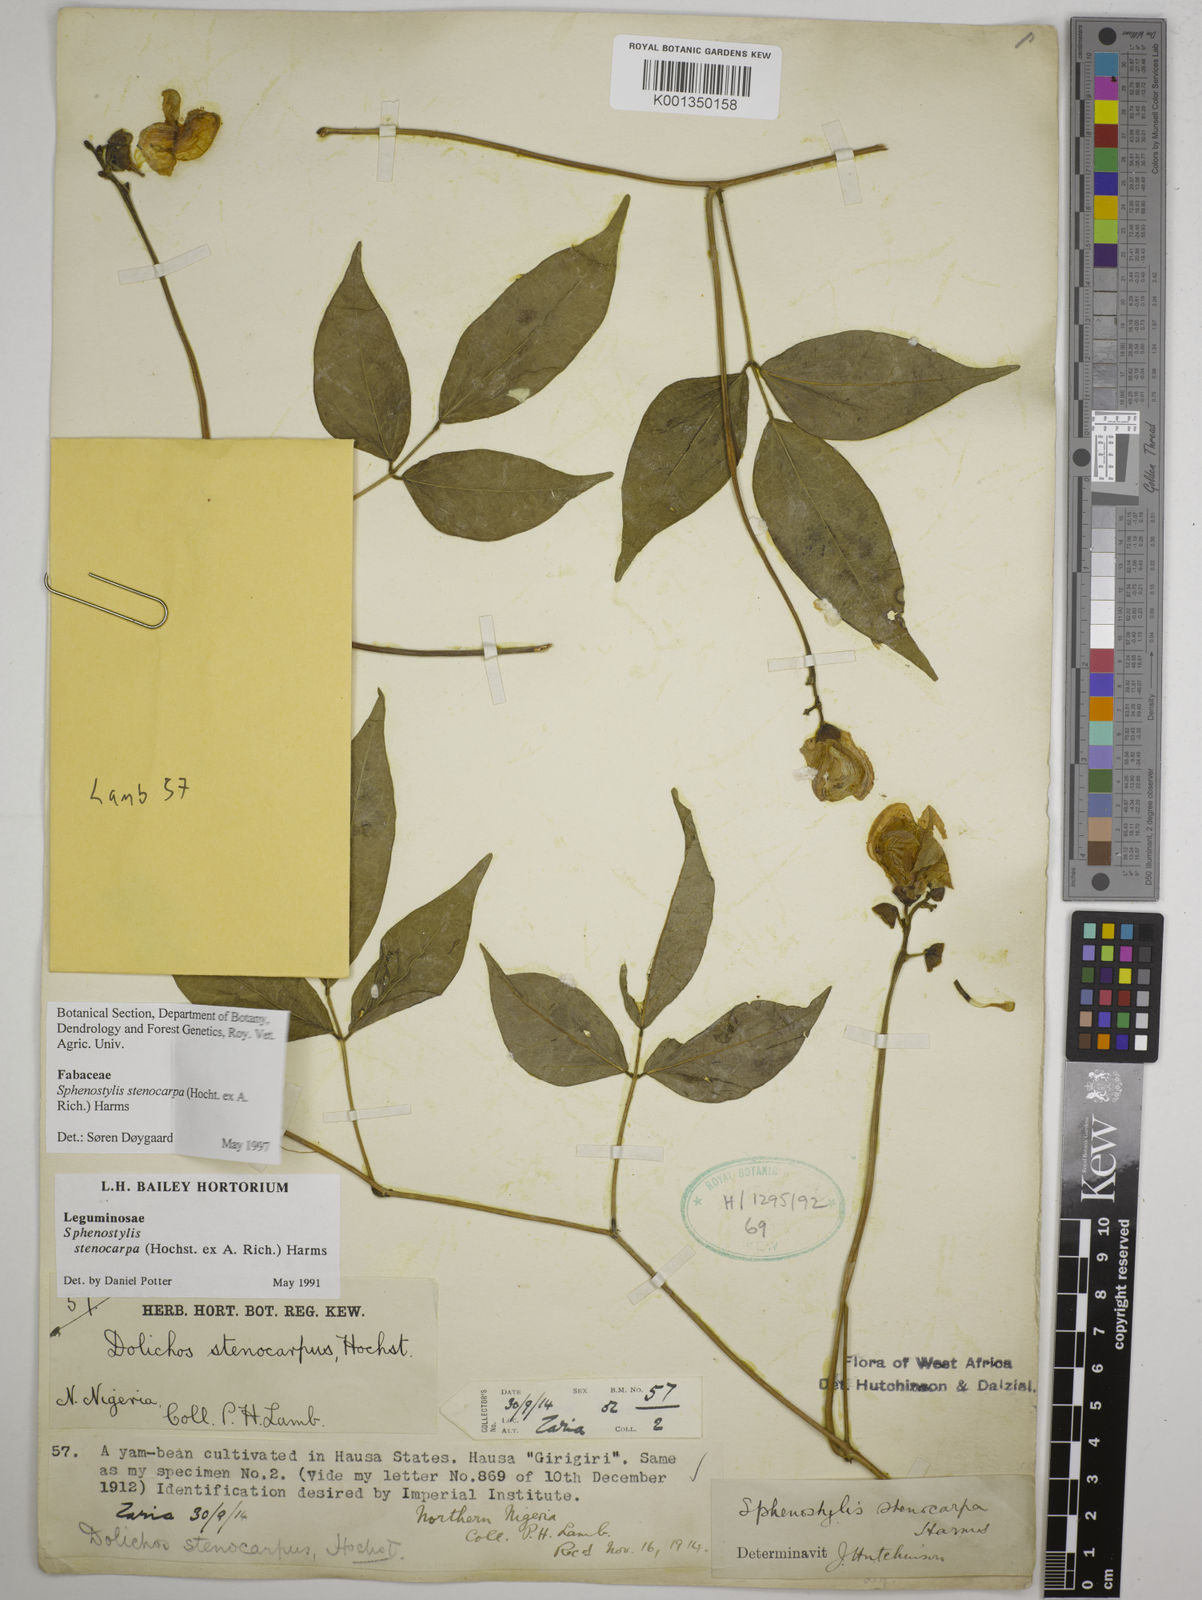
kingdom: Plantae
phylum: Tracheophyta
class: Magnoliopsida
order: Fabales
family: Fabaceae
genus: Sphenostylis
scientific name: Sphenostylis stenocarpa
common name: Yam-pea
